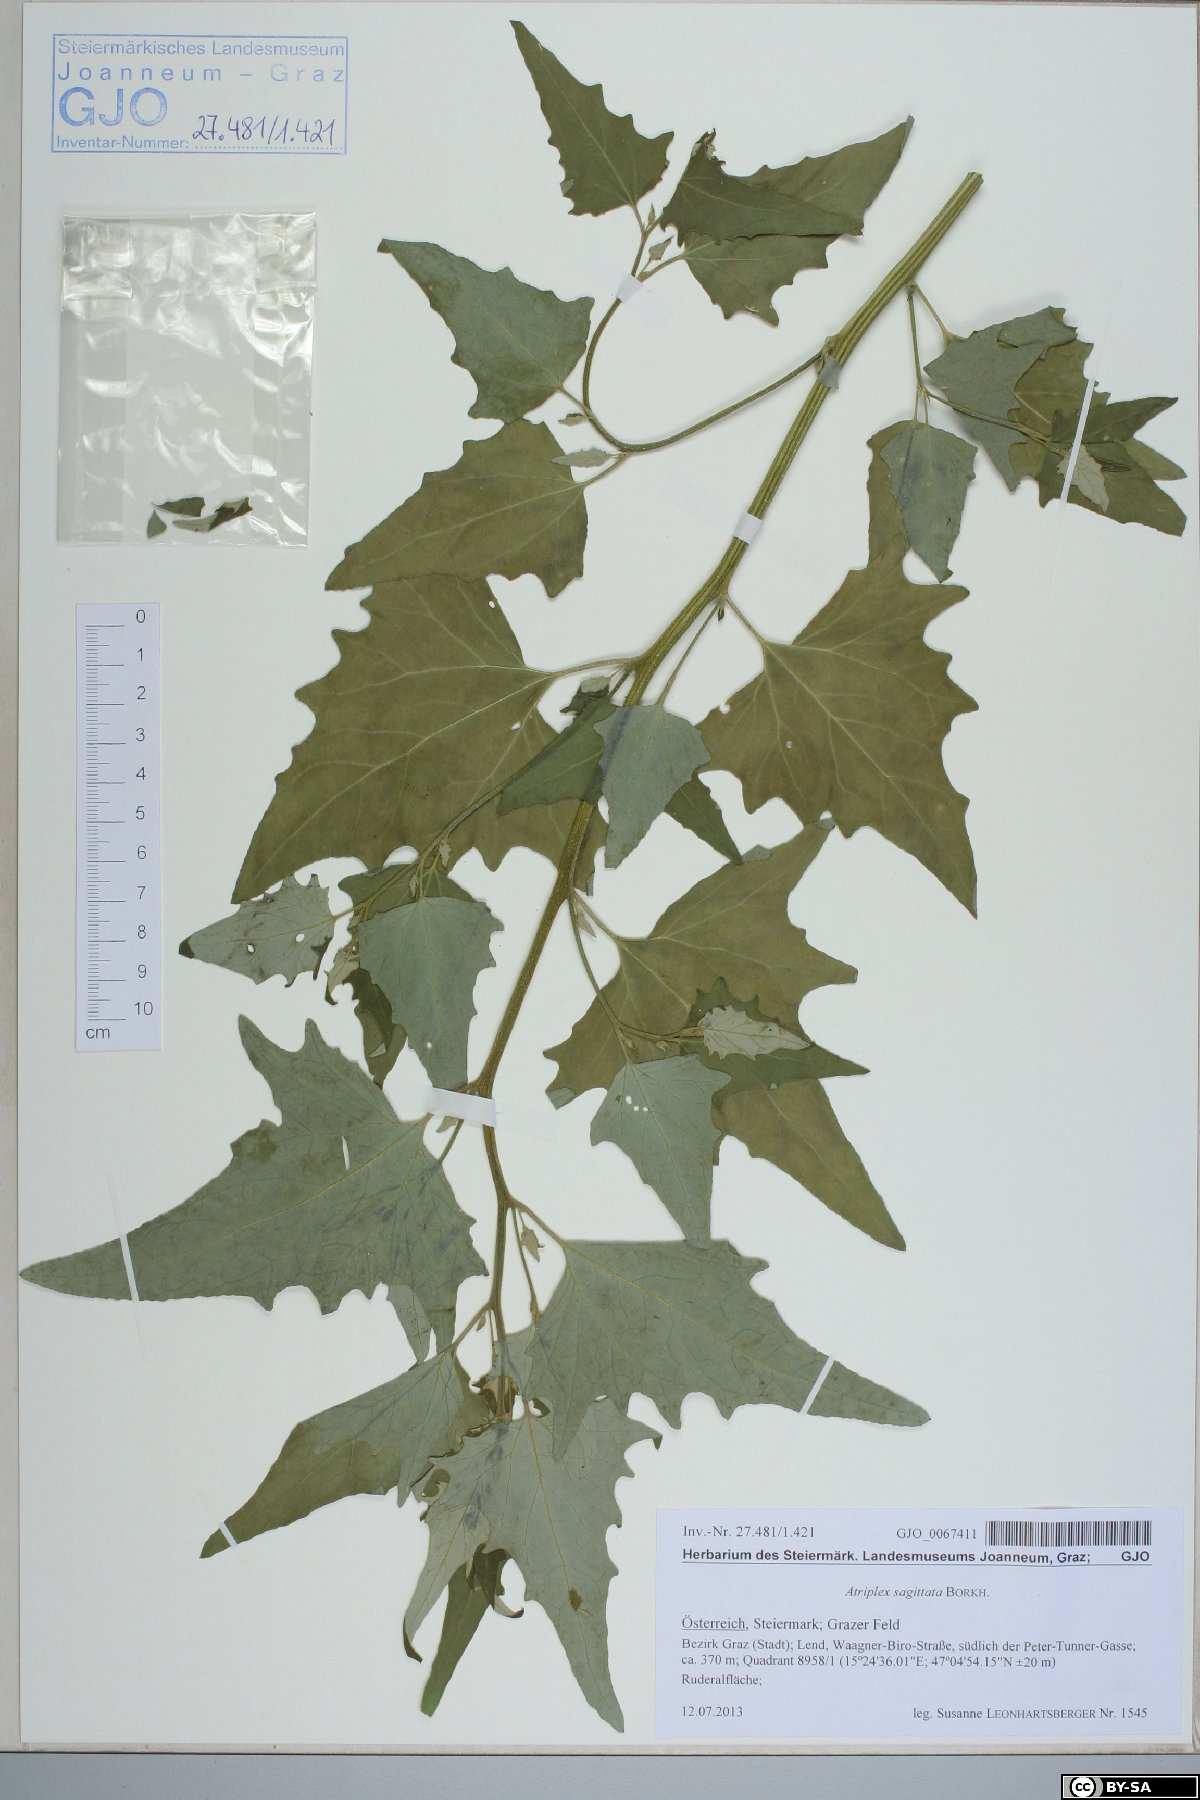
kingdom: Plantae
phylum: Tracheophyta
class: Magnoliopsida
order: Caryophyllales
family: Amaranthaceae
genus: Atriplex
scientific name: Atriplex sagittata
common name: Purple orache
